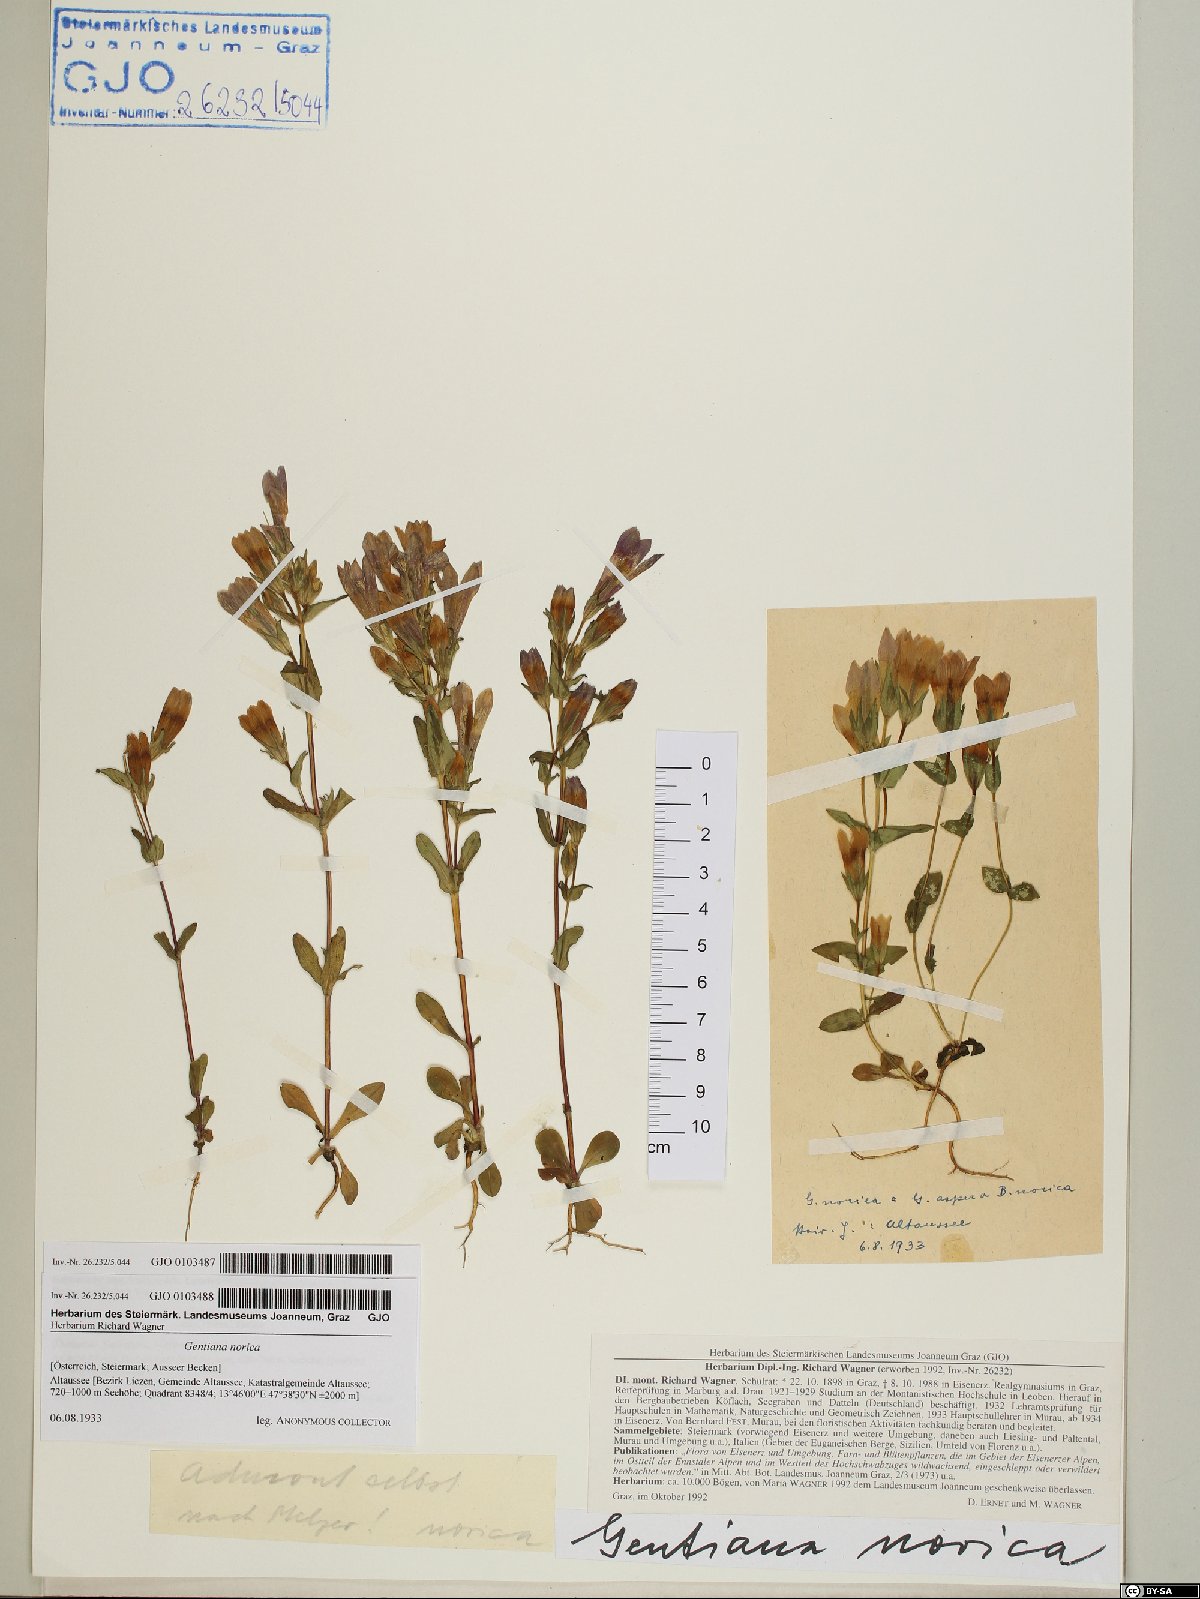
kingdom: Plantae
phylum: Tracheophyta
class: Magnoliopsida
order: Gentianales
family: Gentianaceae
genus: Gentianella
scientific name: Gentianella obtusifolia
